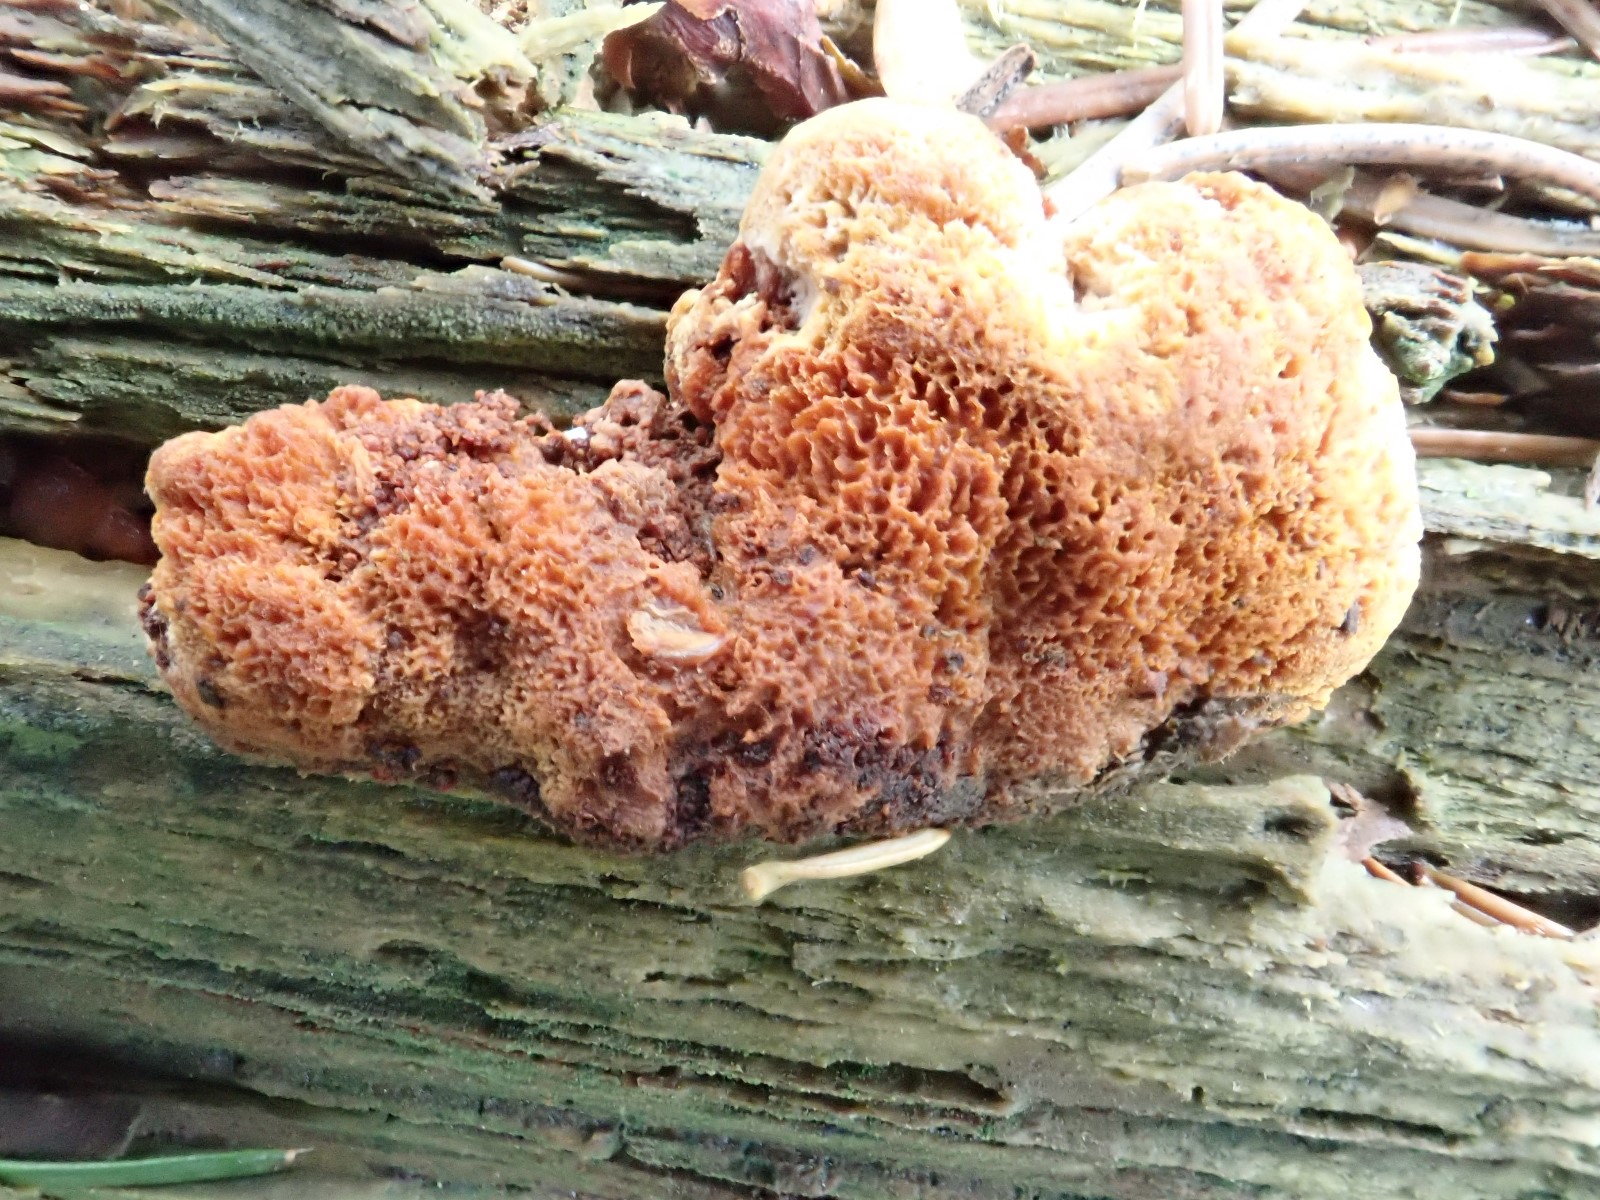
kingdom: Fungi
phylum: Basidiomycota
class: Agaricomycetes
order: Gloeophyllales
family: Gloeophyllaceae
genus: Gloeophyllum
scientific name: Gloeophyllum odoratum
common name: duftende korkhat
